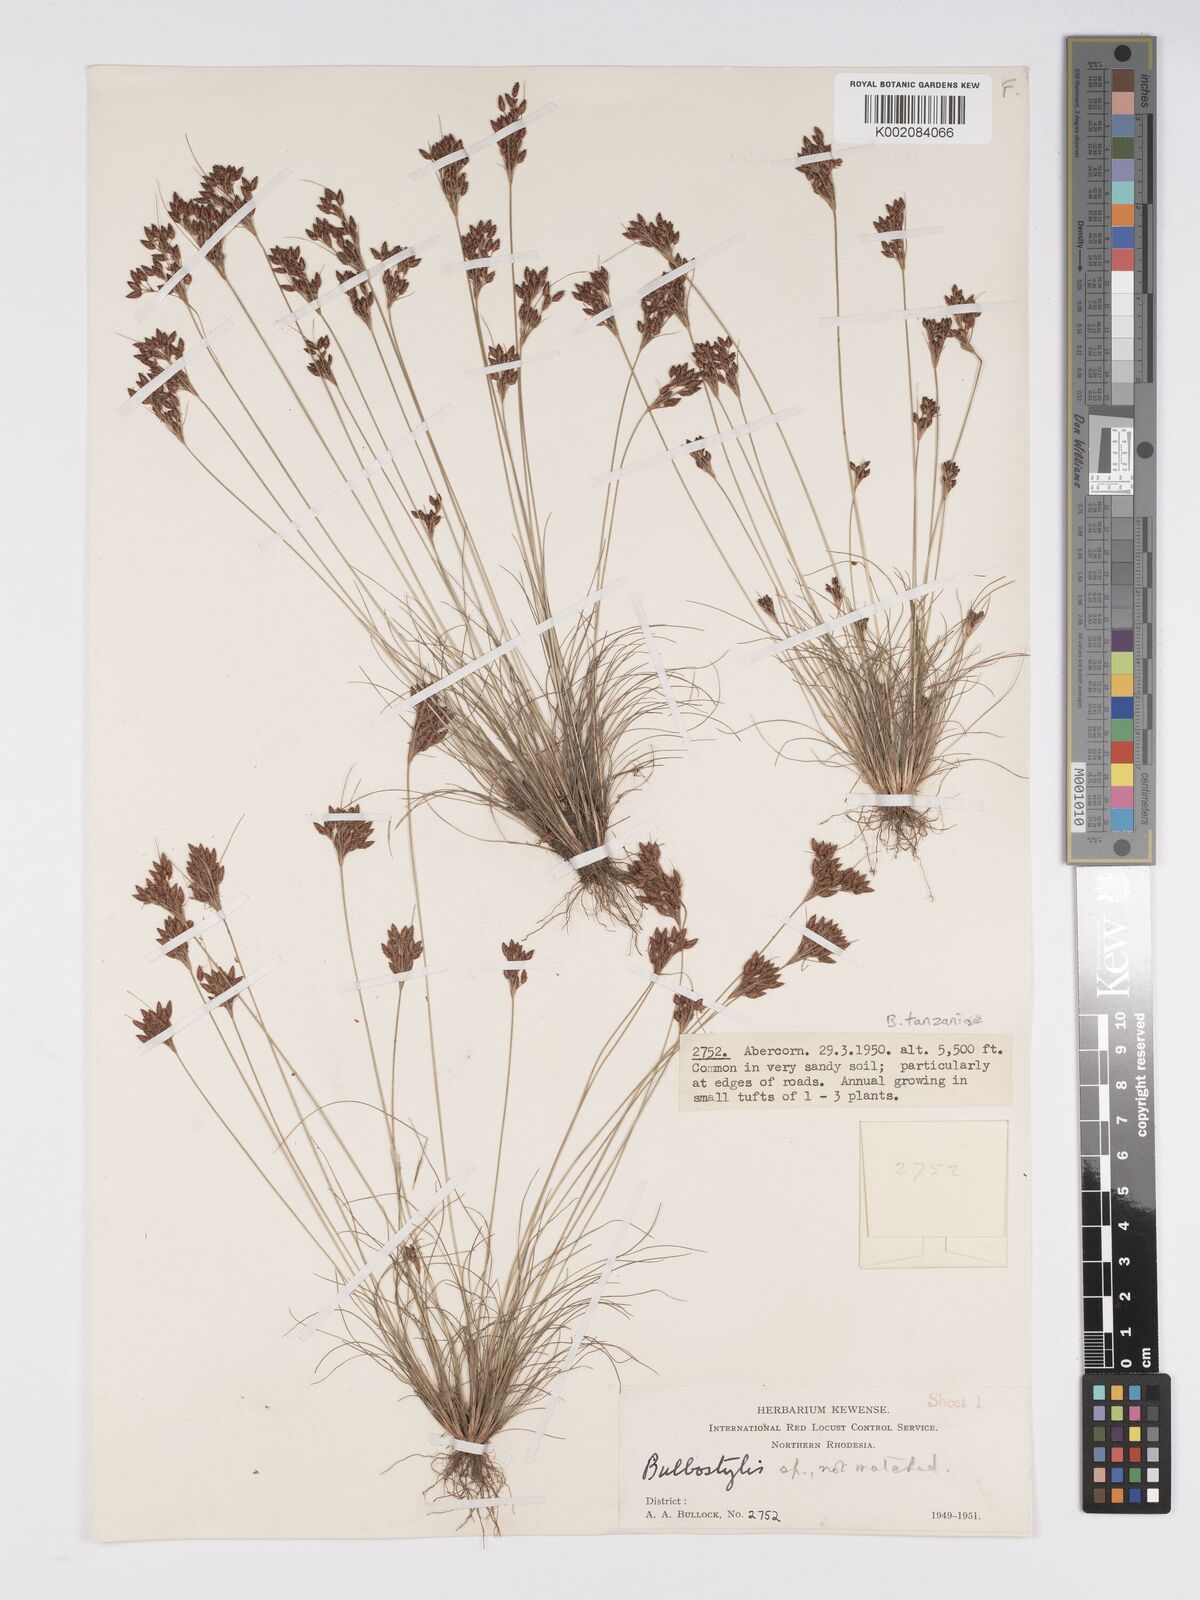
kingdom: Plantae
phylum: Tracheophyta
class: Liliopsida
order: Poales
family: Cyperaceae
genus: Bulbostylis
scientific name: Bulbostylis tanzaniae
